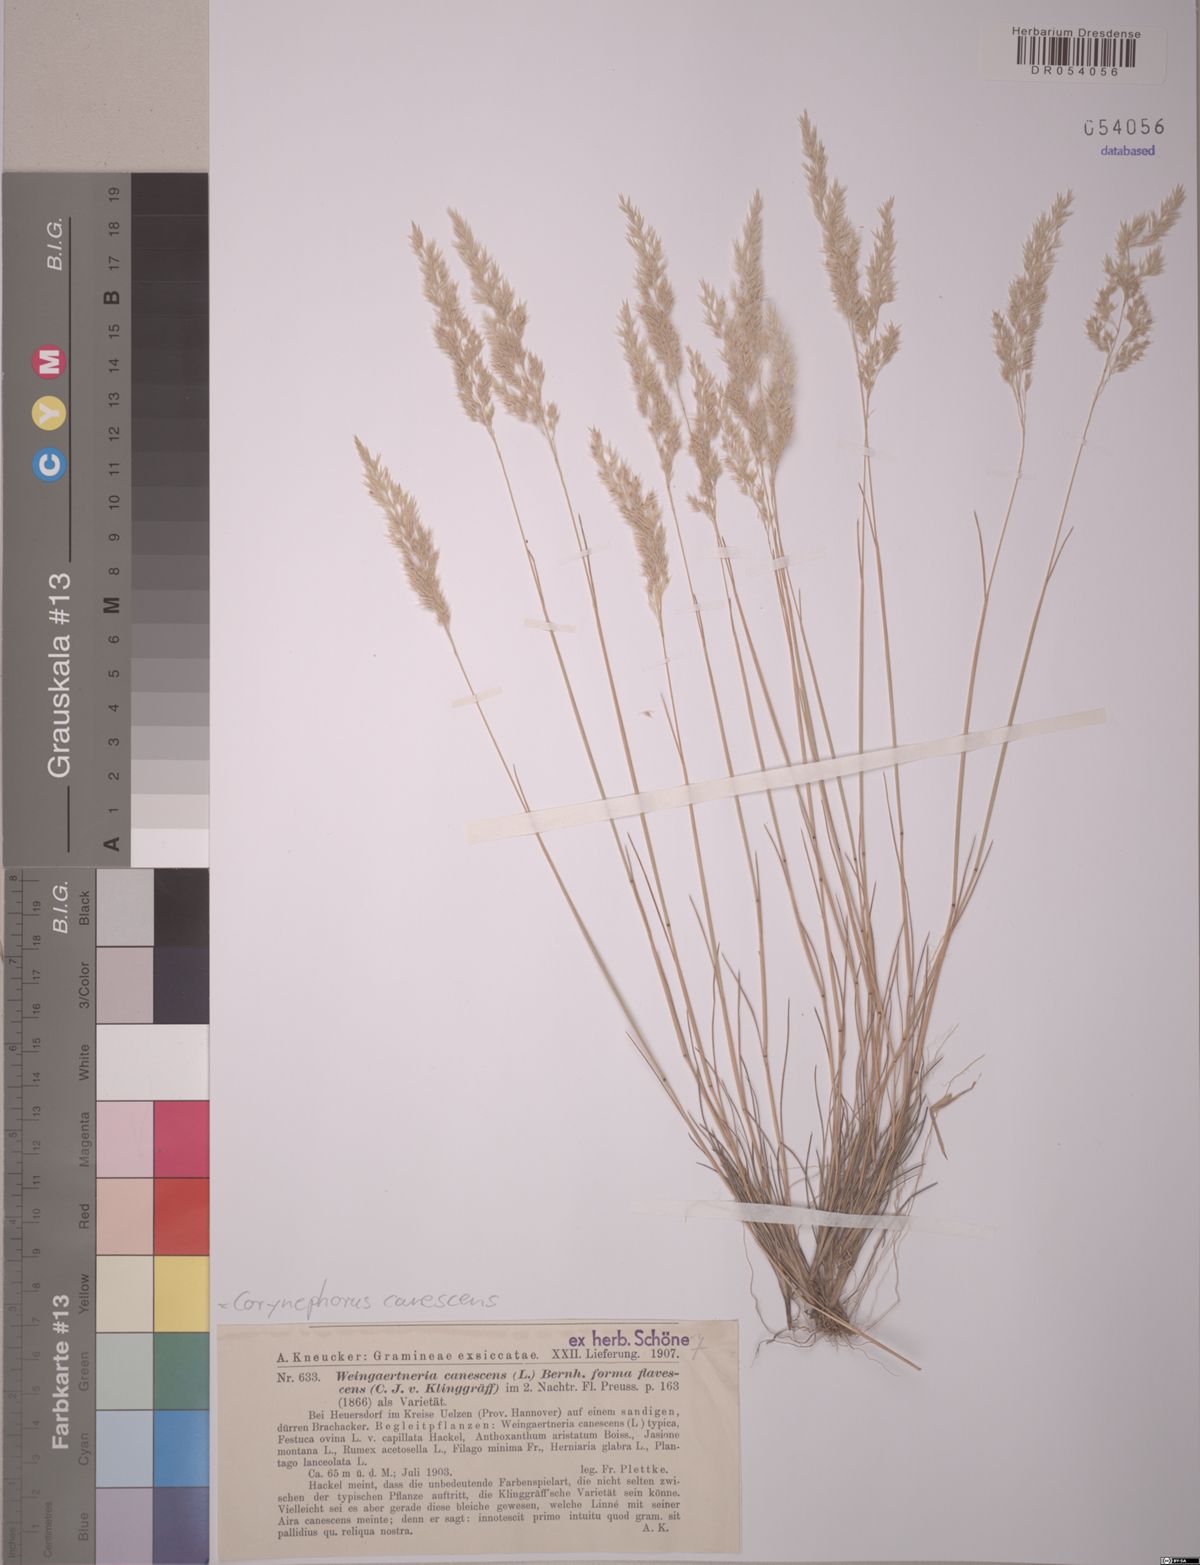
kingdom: Plantae
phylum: Tracheophyta
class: Liliopsida
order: Poales
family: Poaceae
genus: Corynephorus
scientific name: Corynephorus canescens
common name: Grey hair-grass
